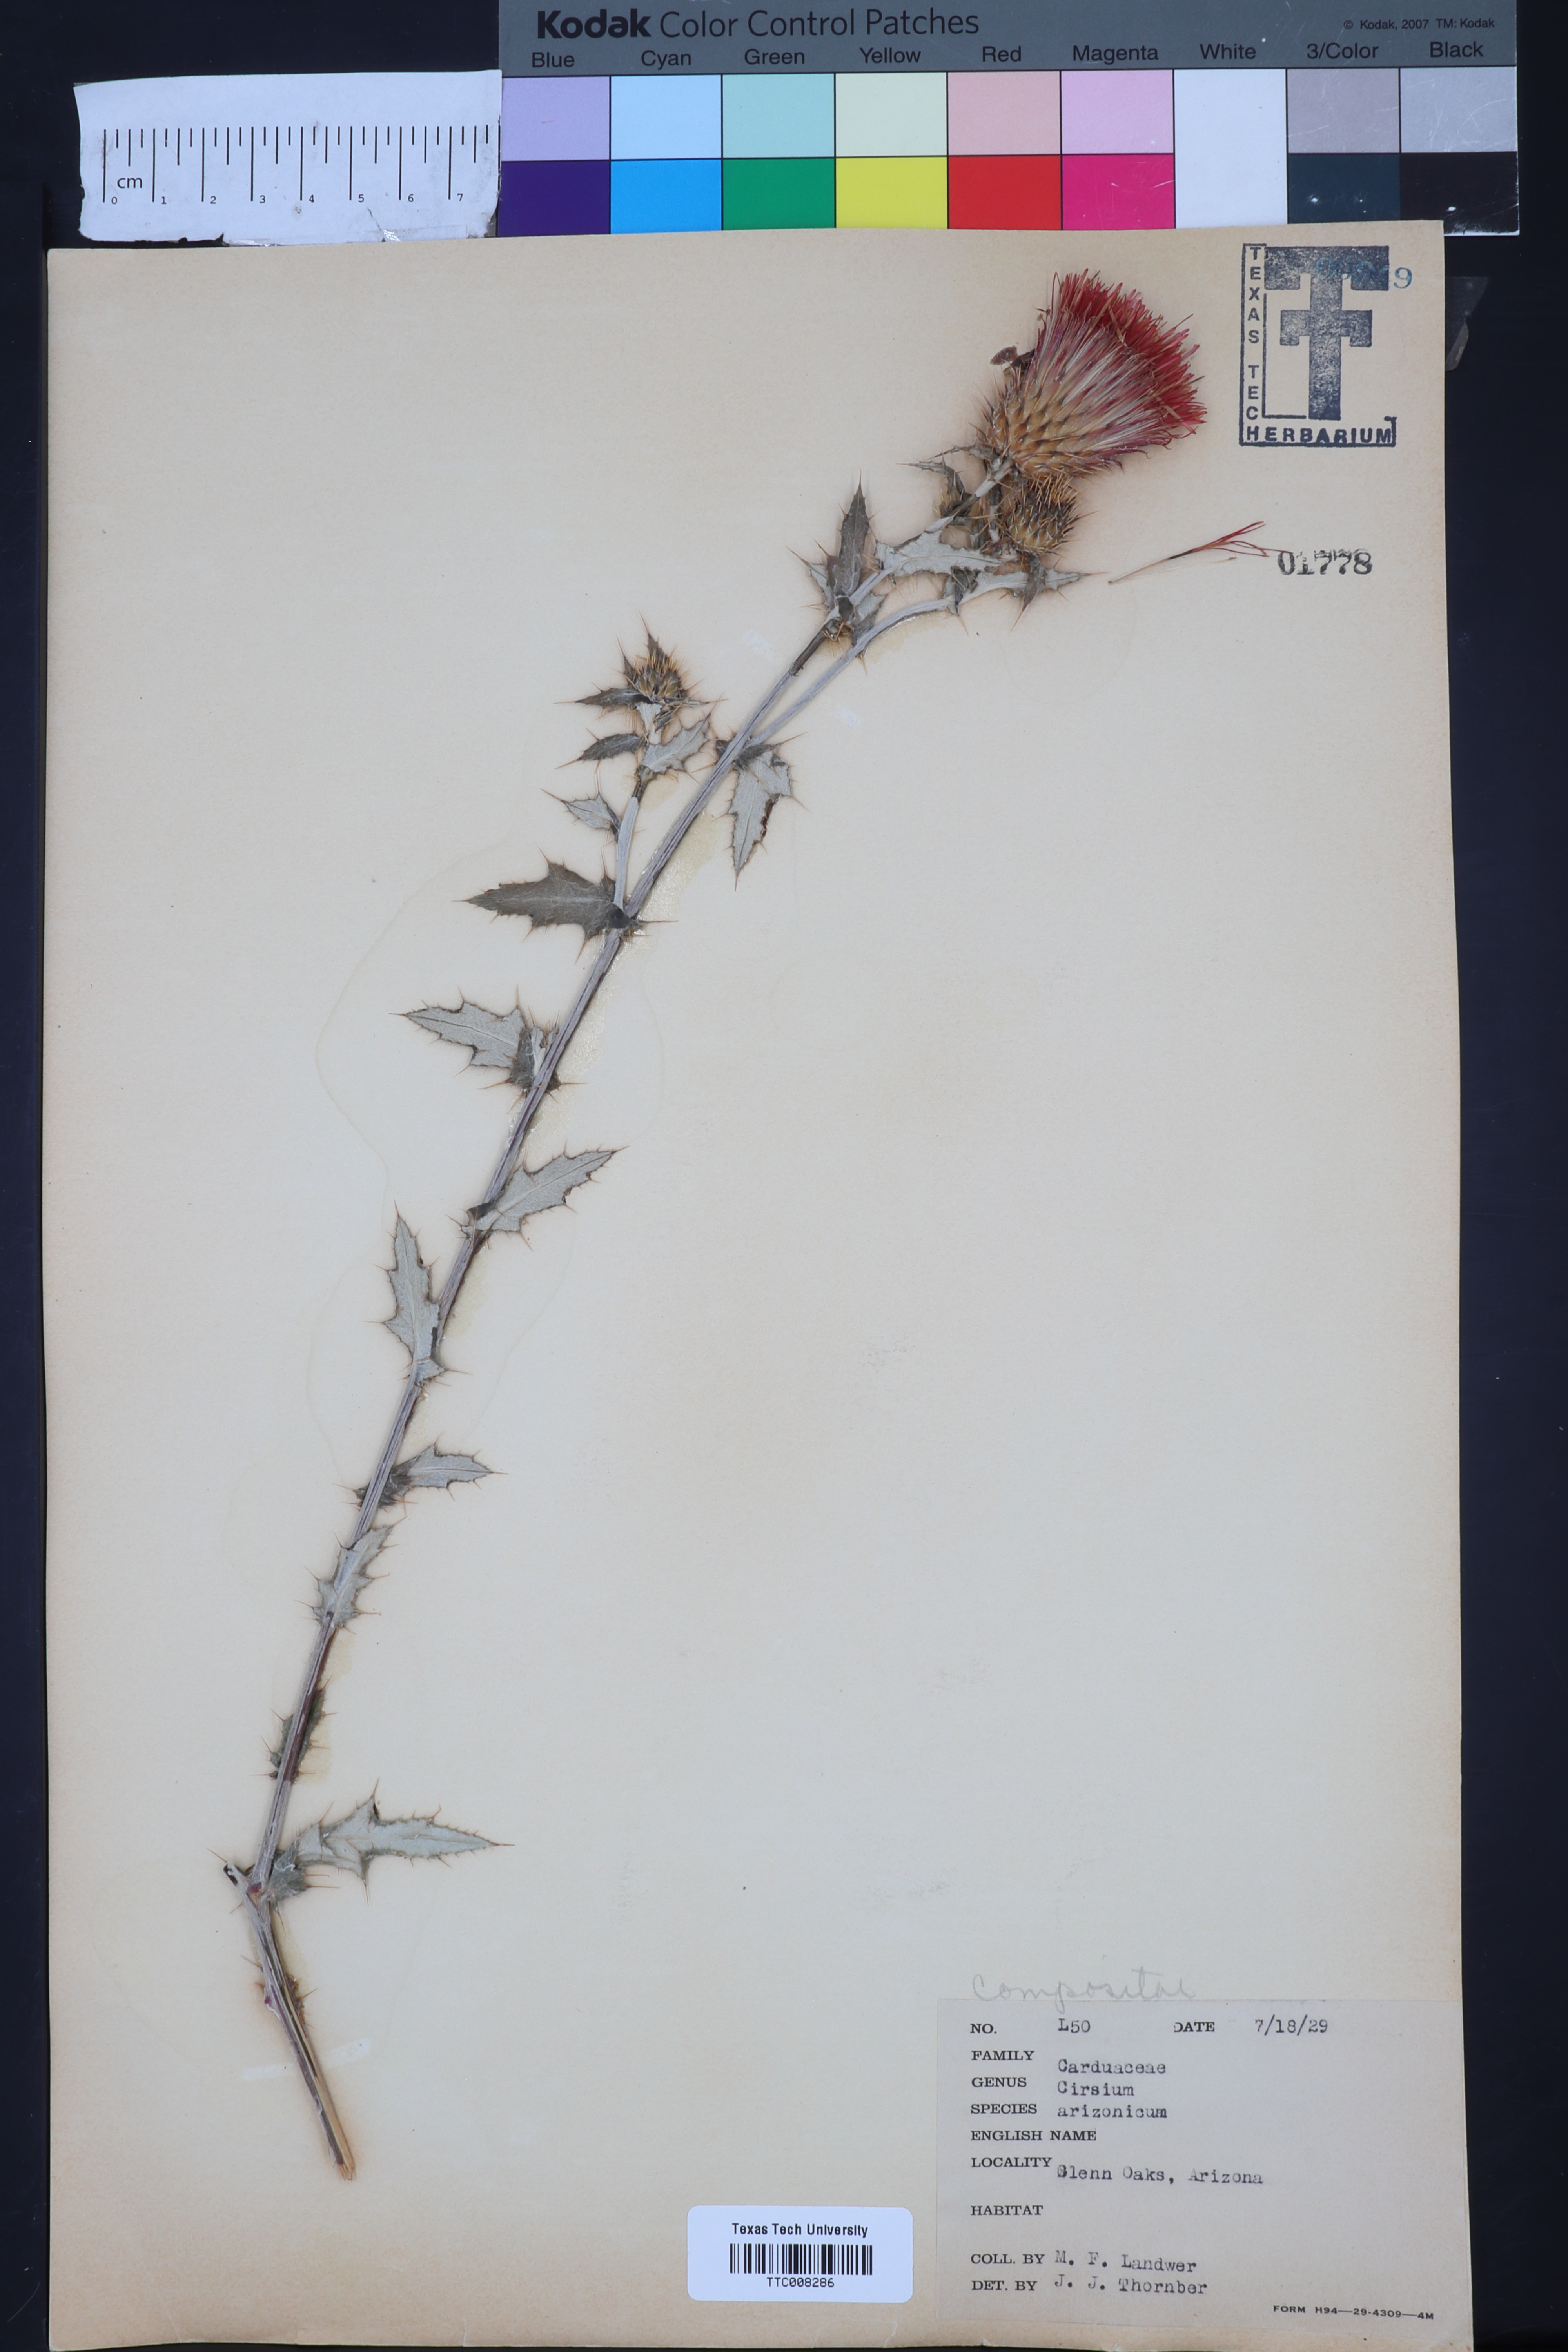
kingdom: Plantae
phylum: Tracheophyta
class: Magnoliopsida
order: Asterales
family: Asteraceae
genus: Cirsium
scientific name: Cirsium arizonicum
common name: Arizona thistle
